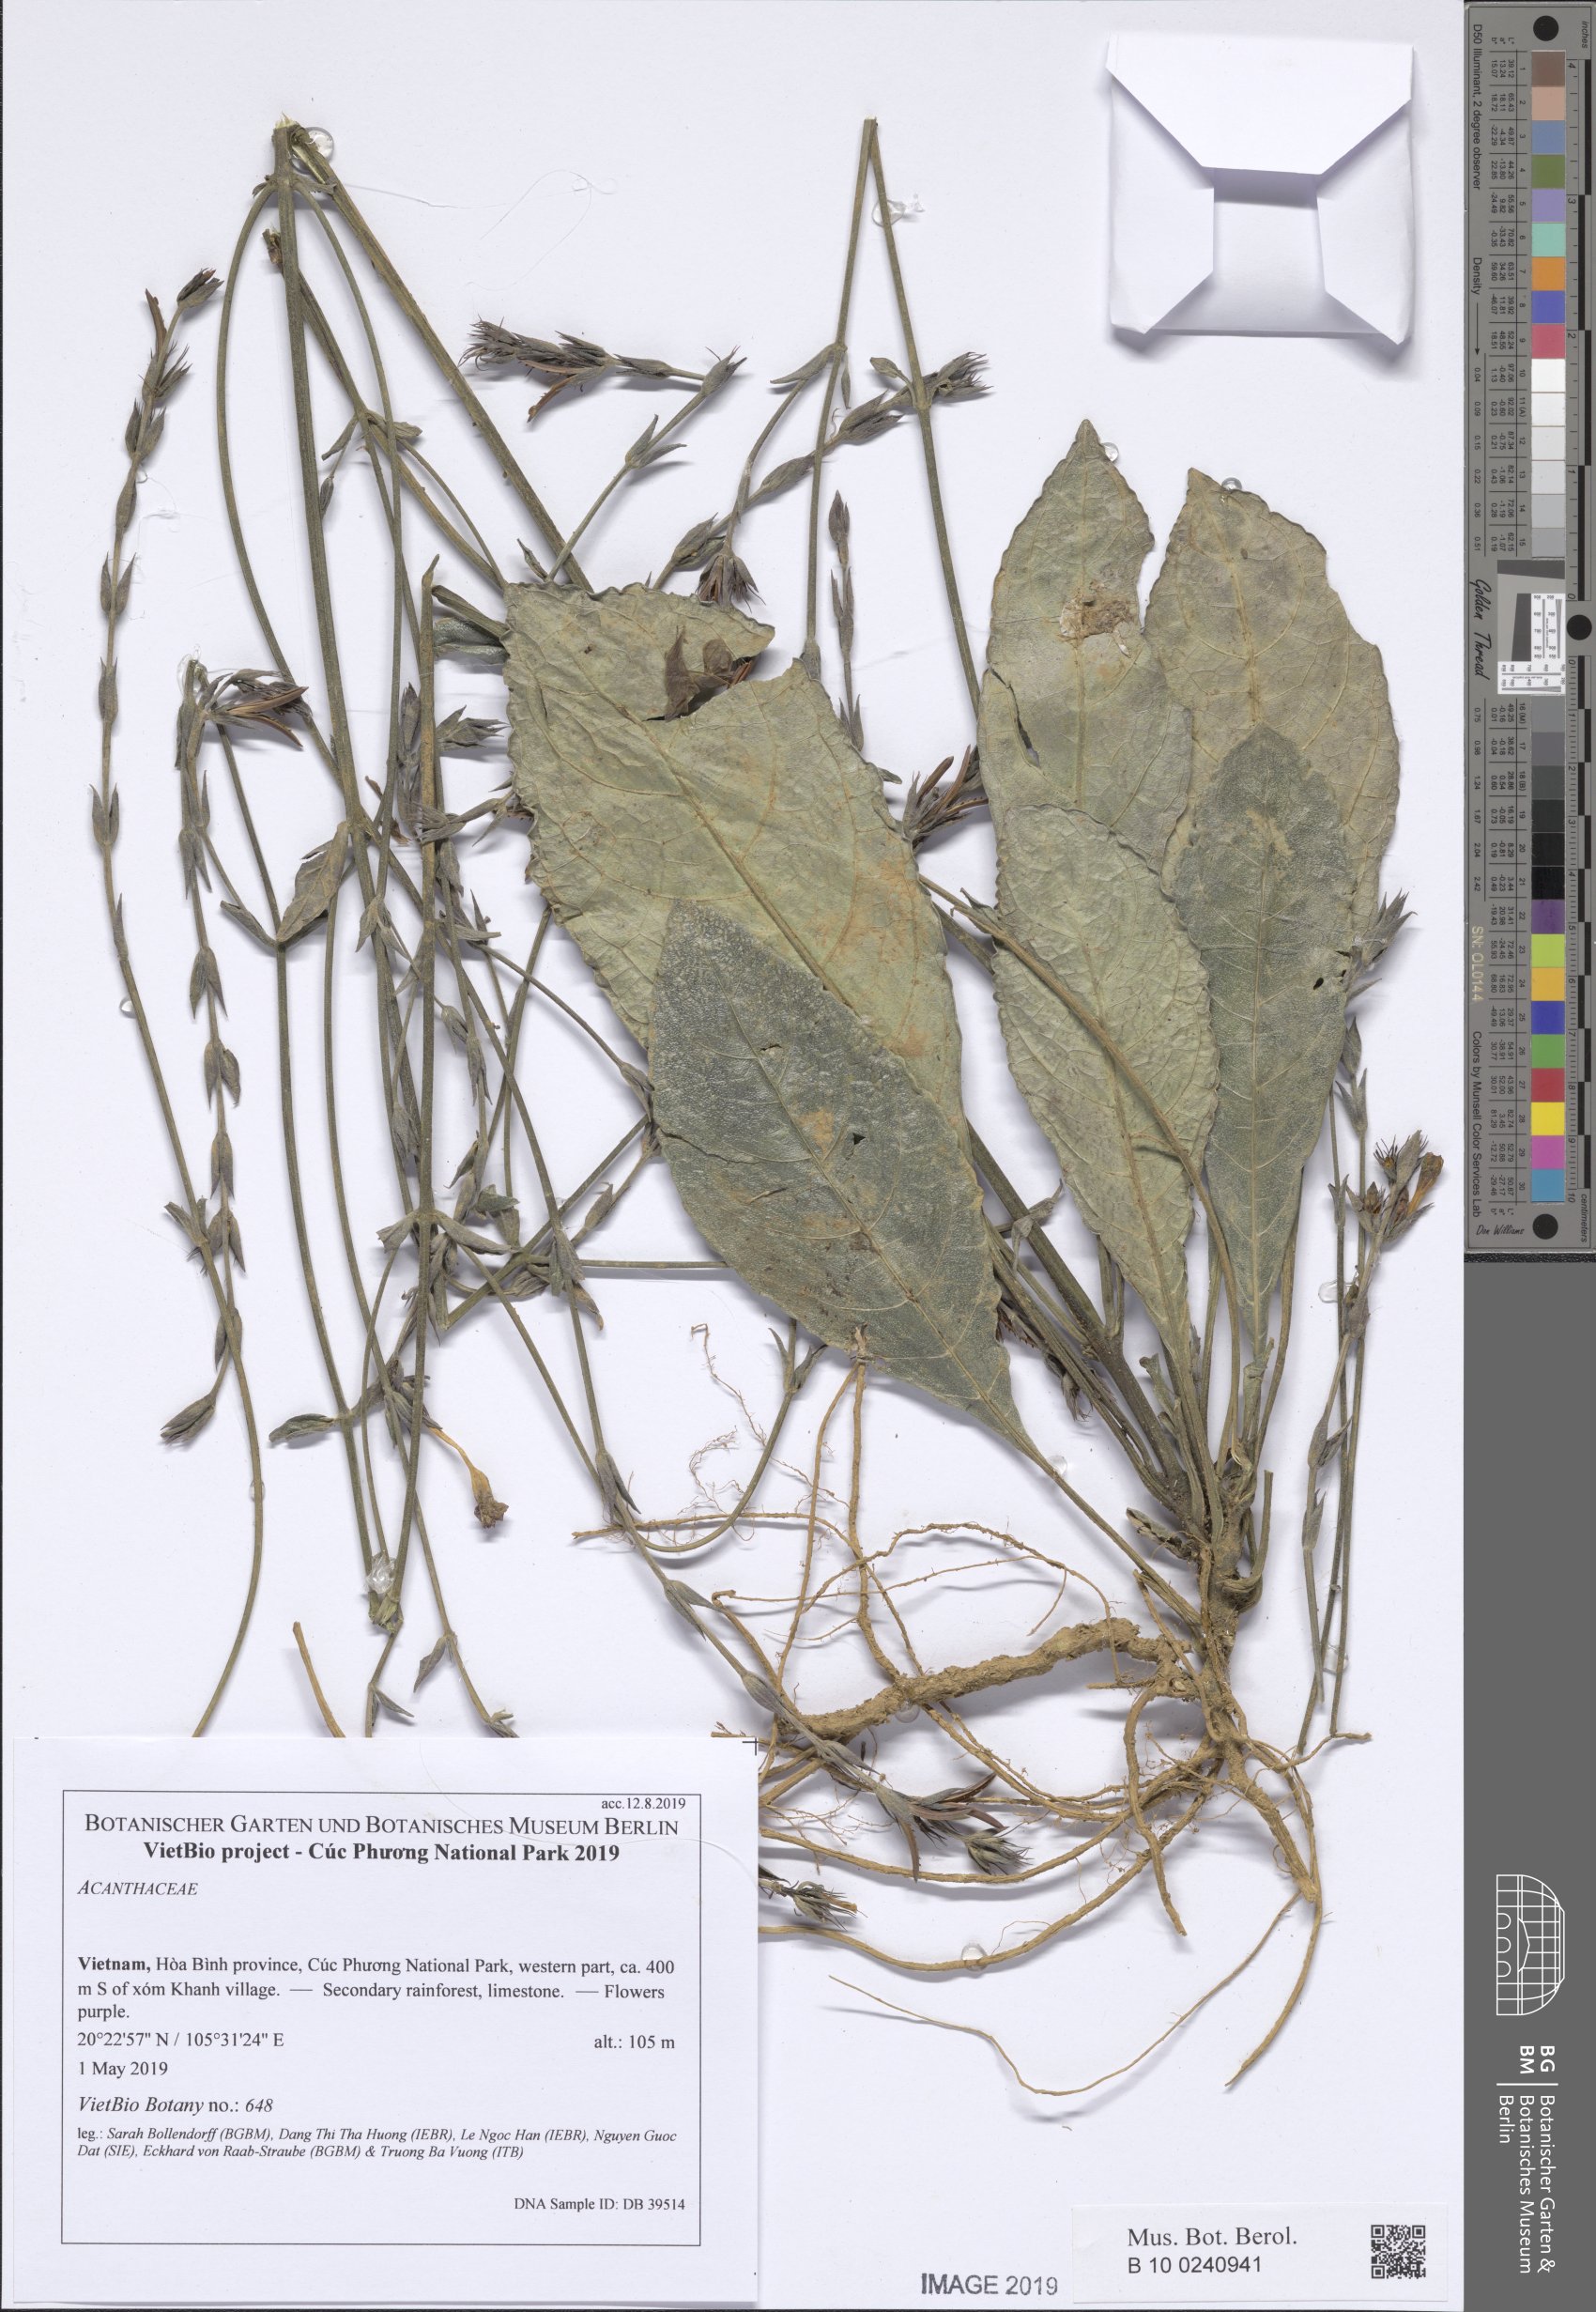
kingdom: Plantae
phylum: Tracheophyta
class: Magnoliopsida
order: Lamiales
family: Acanthaceae
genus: Pararuellia
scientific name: Pararuellia
